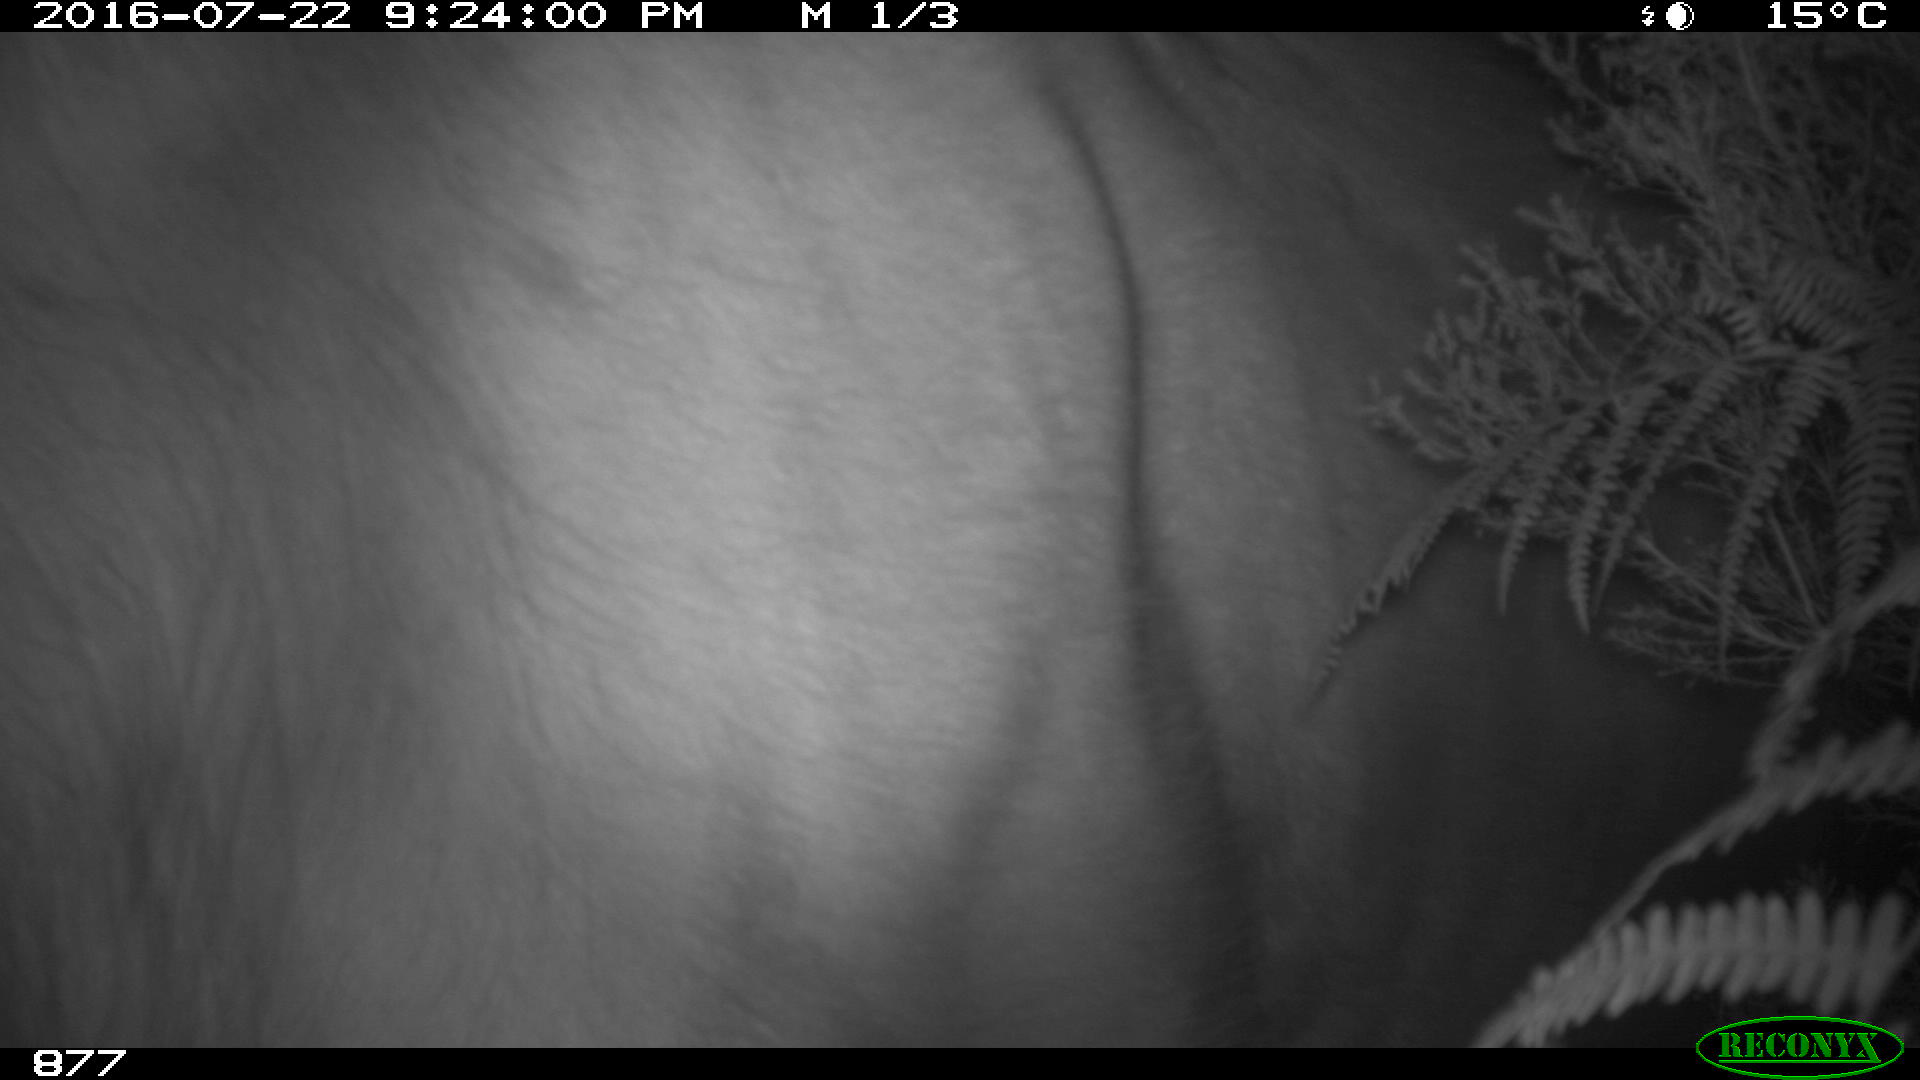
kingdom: Animalia
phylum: Chordata
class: Mammalia
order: Artiodactyla
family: Bovidae
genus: Bos
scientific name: Bos taurus
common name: Domesticated cattle
